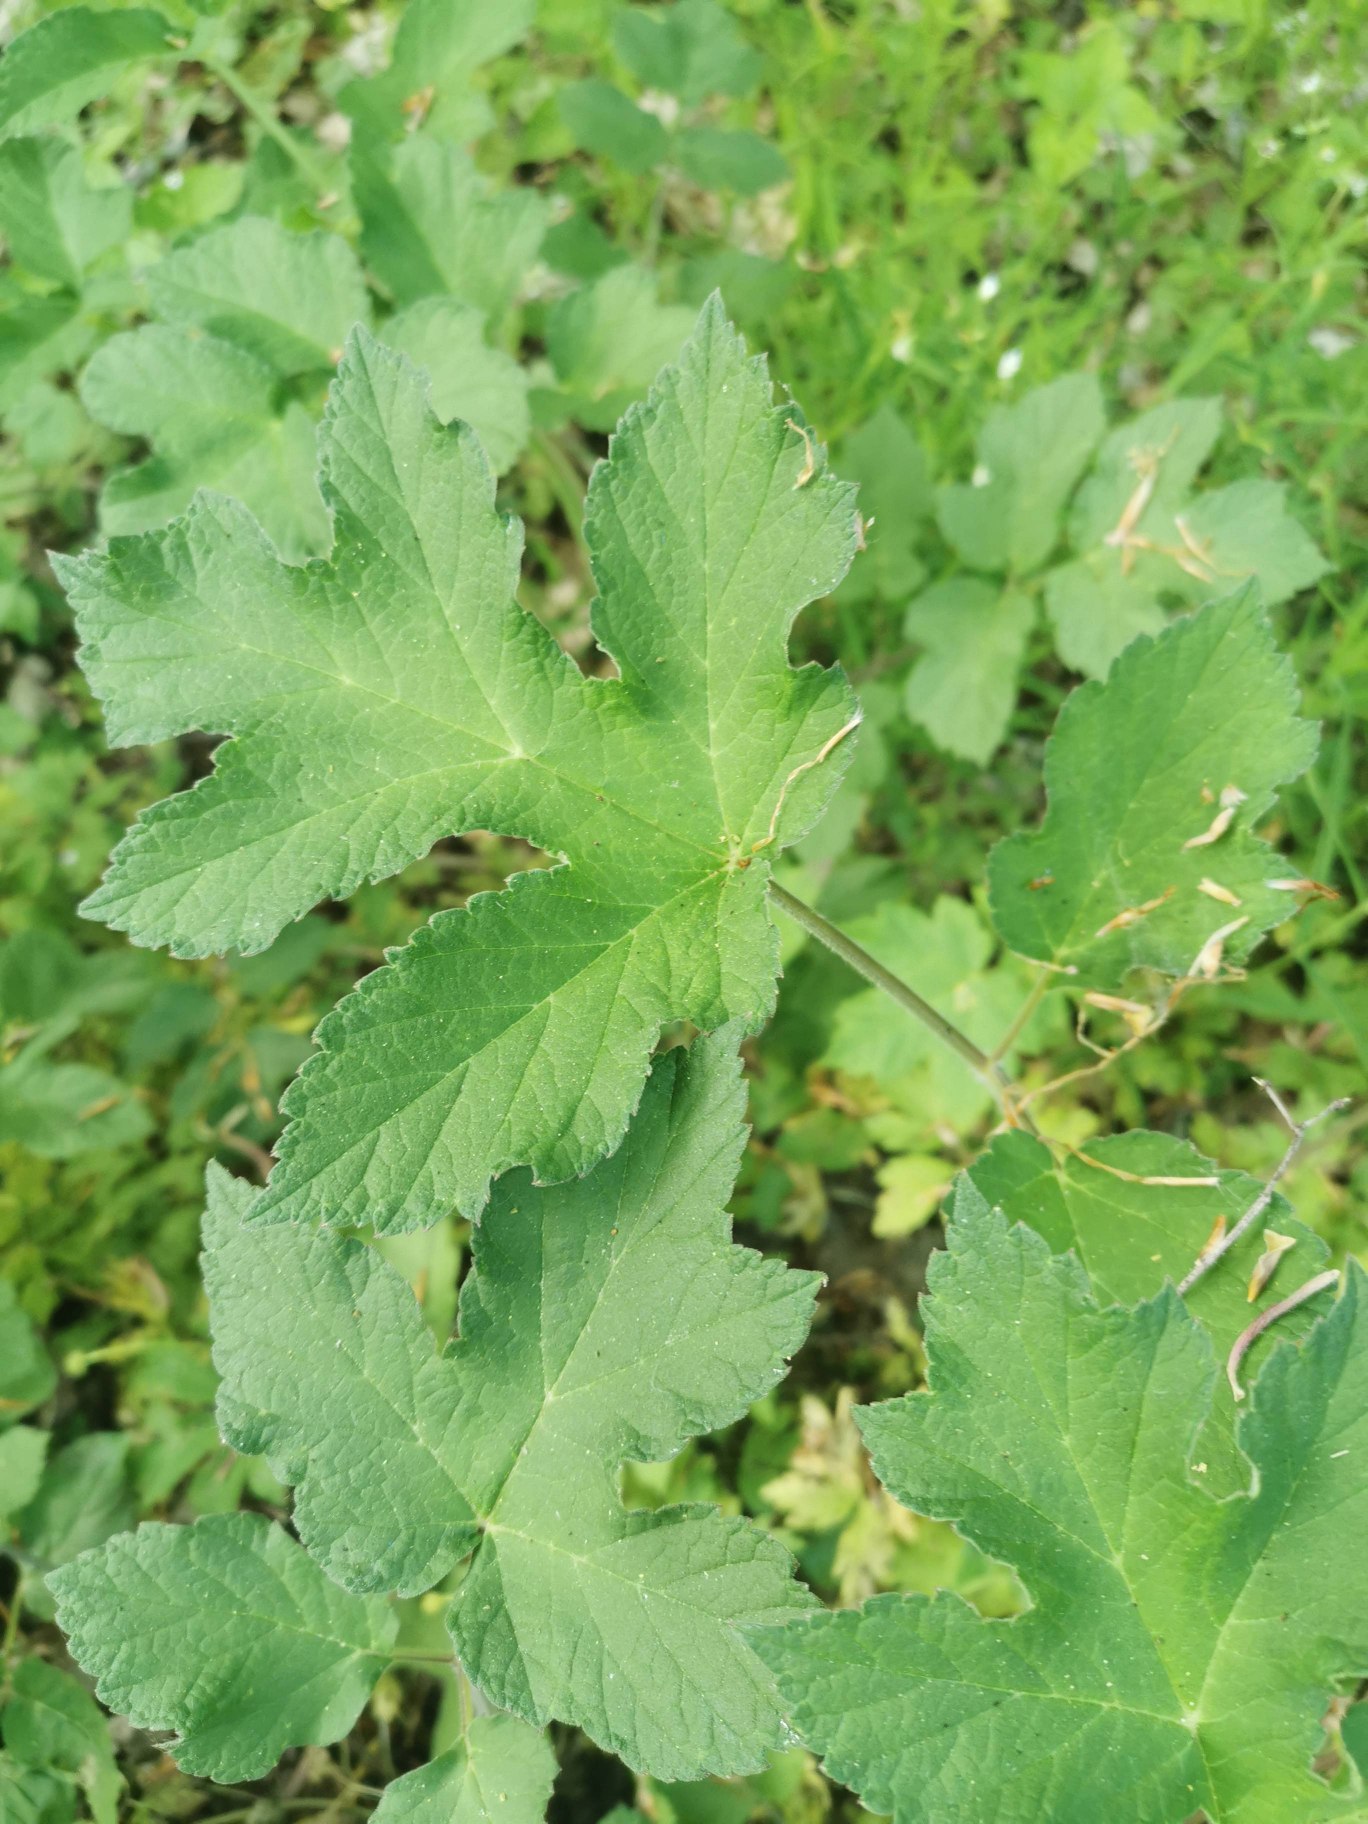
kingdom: Plantae
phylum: Tracheophyta
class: Magnoliopsida
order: Apiales
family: Apiaceae
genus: Heracleum
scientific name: Heracleum sphondylium
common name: Almindelig bjørneklo (underart)
